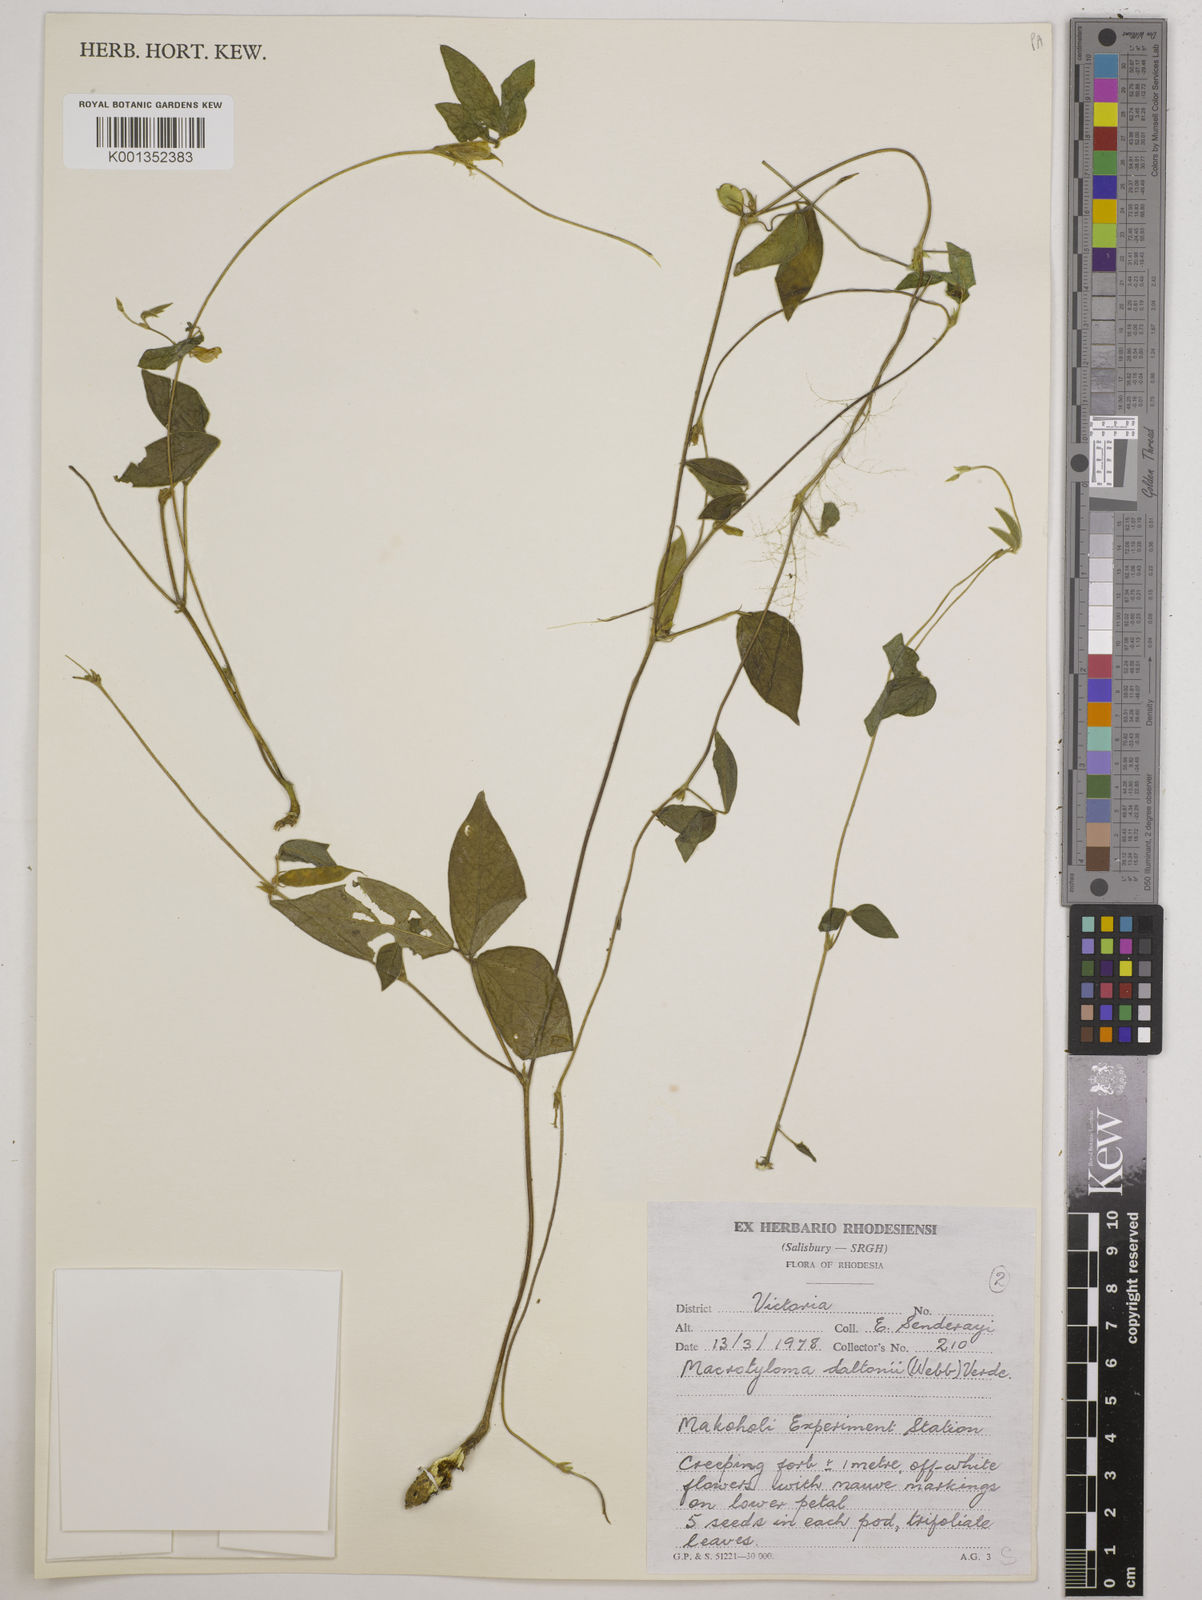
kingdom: Plantae
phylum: Tracheophyta
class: Magnoliopsida
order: Fabales
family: Fabaceae
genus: Macrotyloma
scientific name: Macrotyloma daltonii
